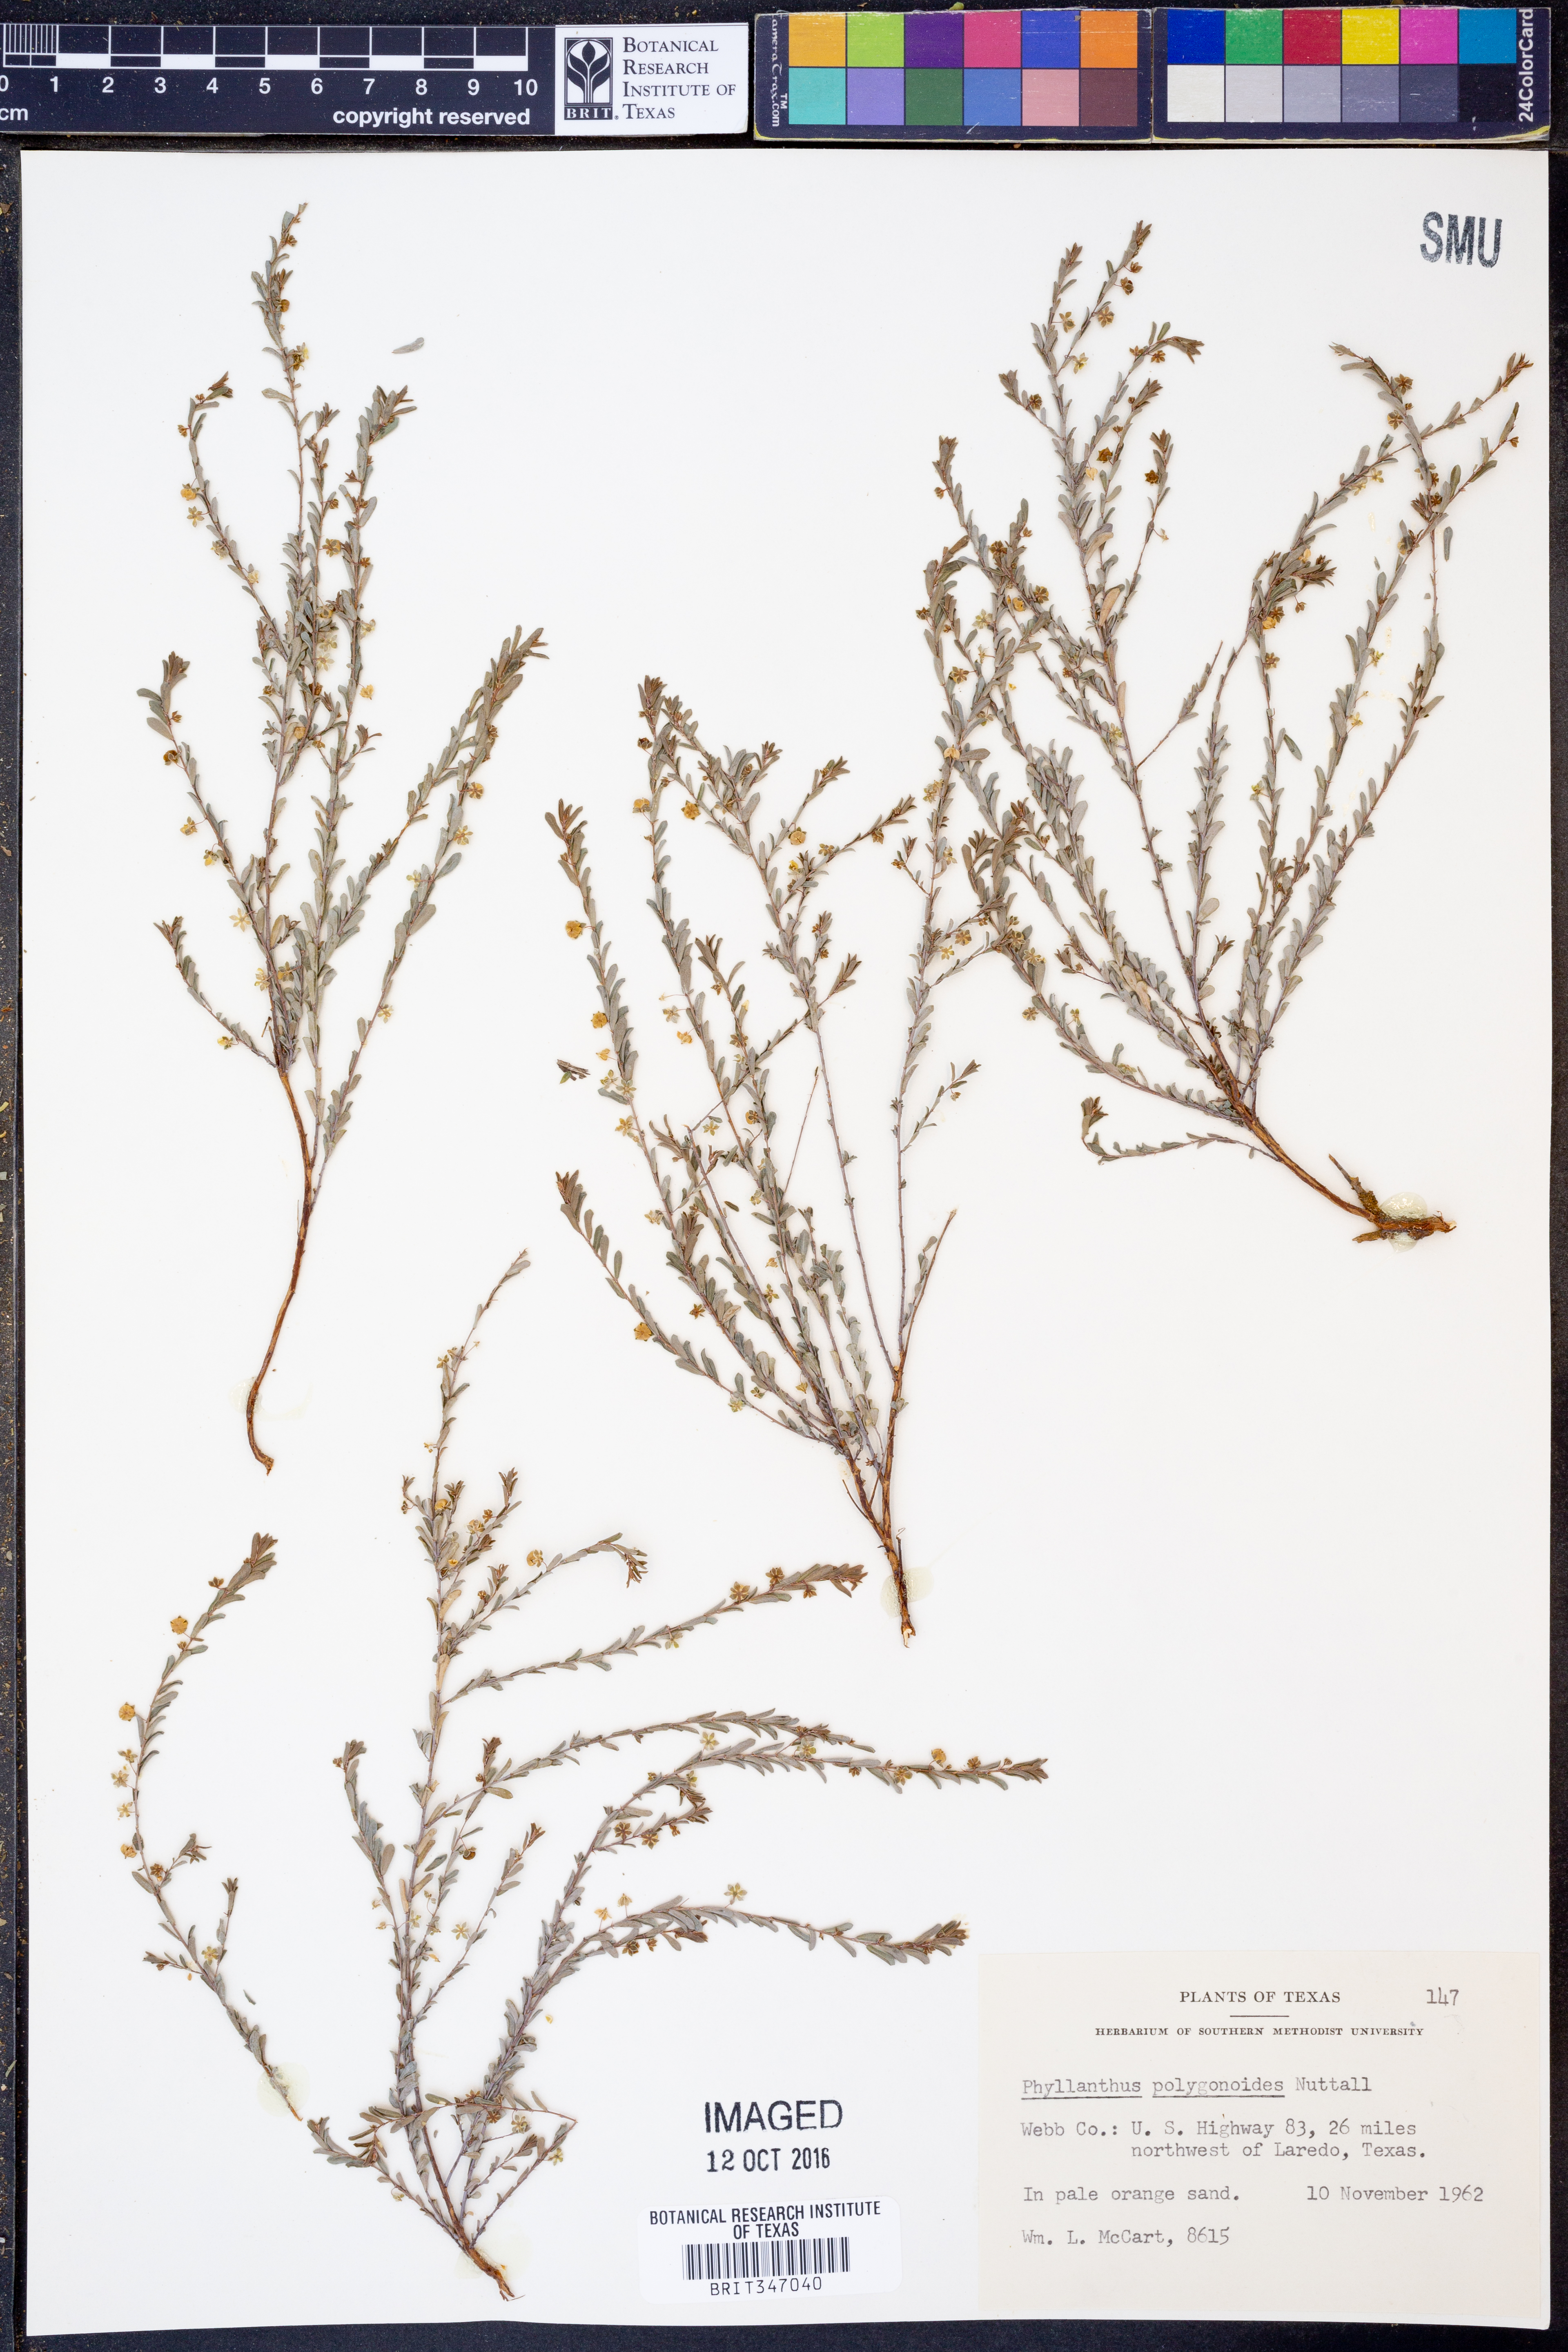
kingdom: Plantae
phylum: Tracheophyta
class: Magnoliopsida
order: Malpighiales
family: Phyllanthaceae
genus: Phyllanthus
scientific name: Phyllanthus polygonoides
